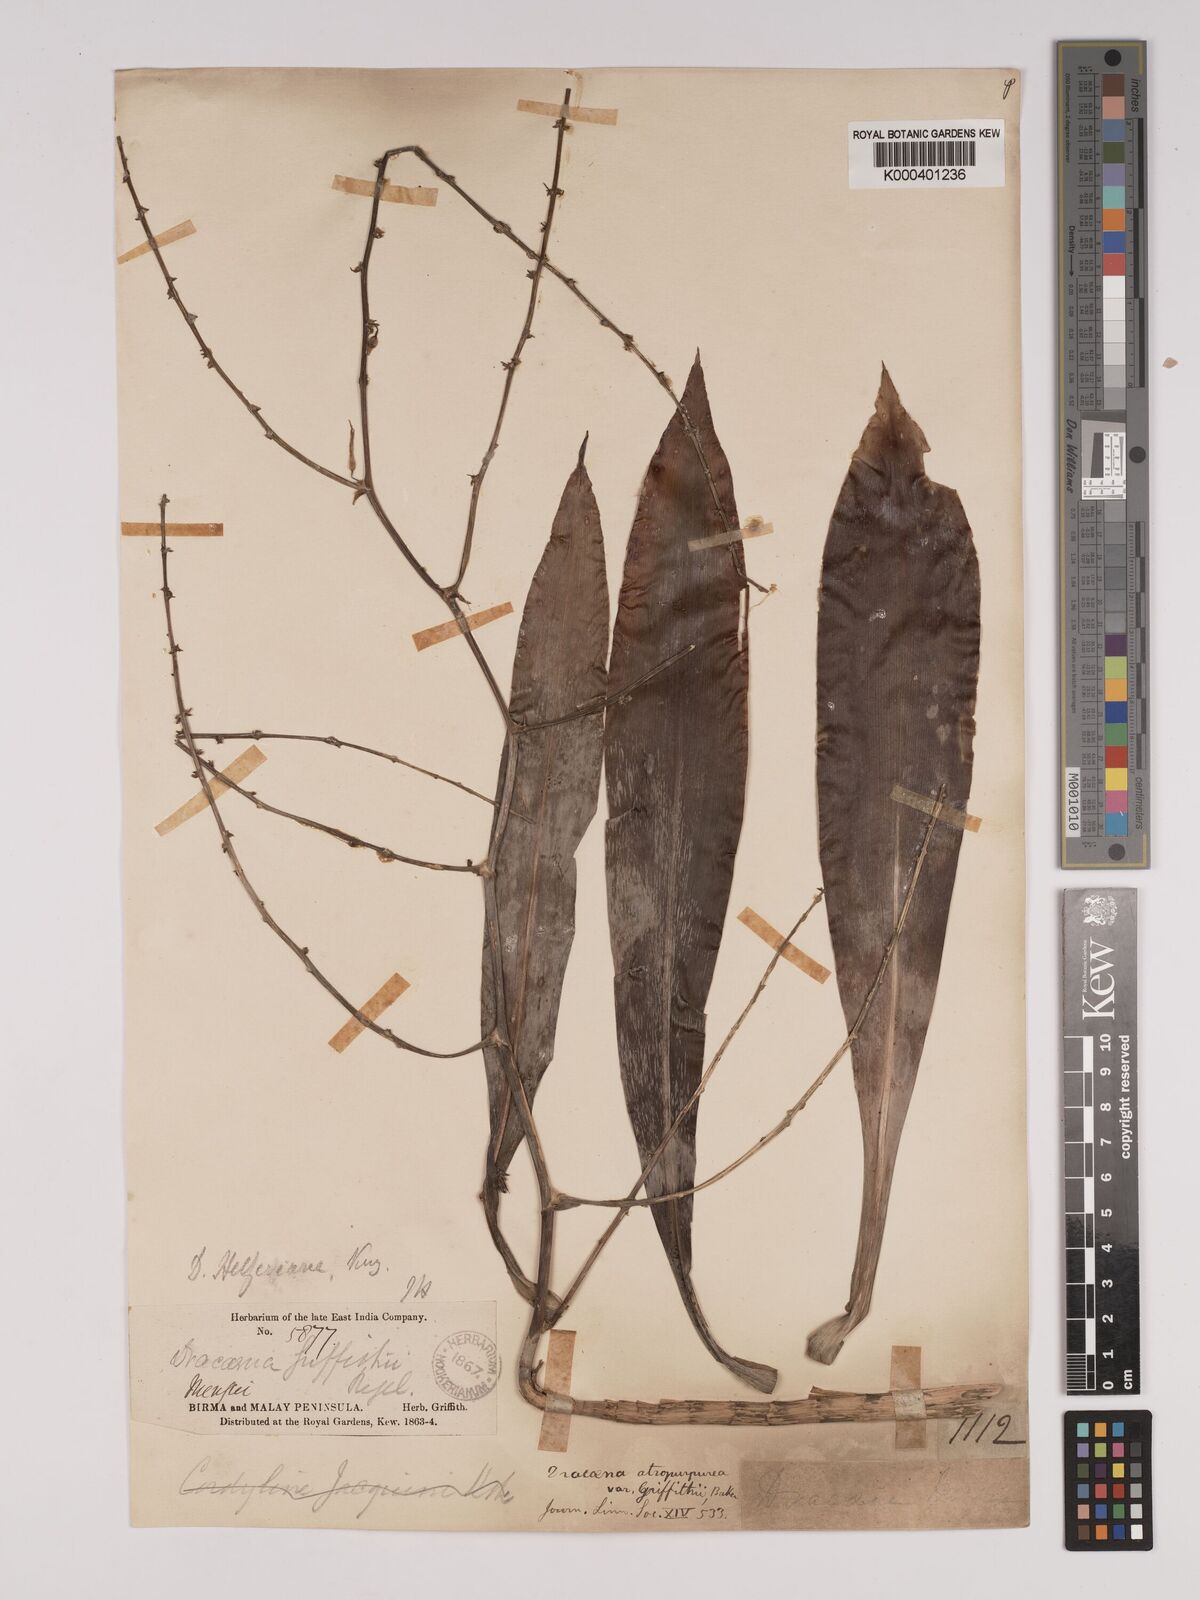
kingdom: Plantae
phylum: Tracheophyta
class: Liliopsida
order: Asparagales
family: Asparagaceae
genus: Dracaena
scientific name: Dracaena griffithii
